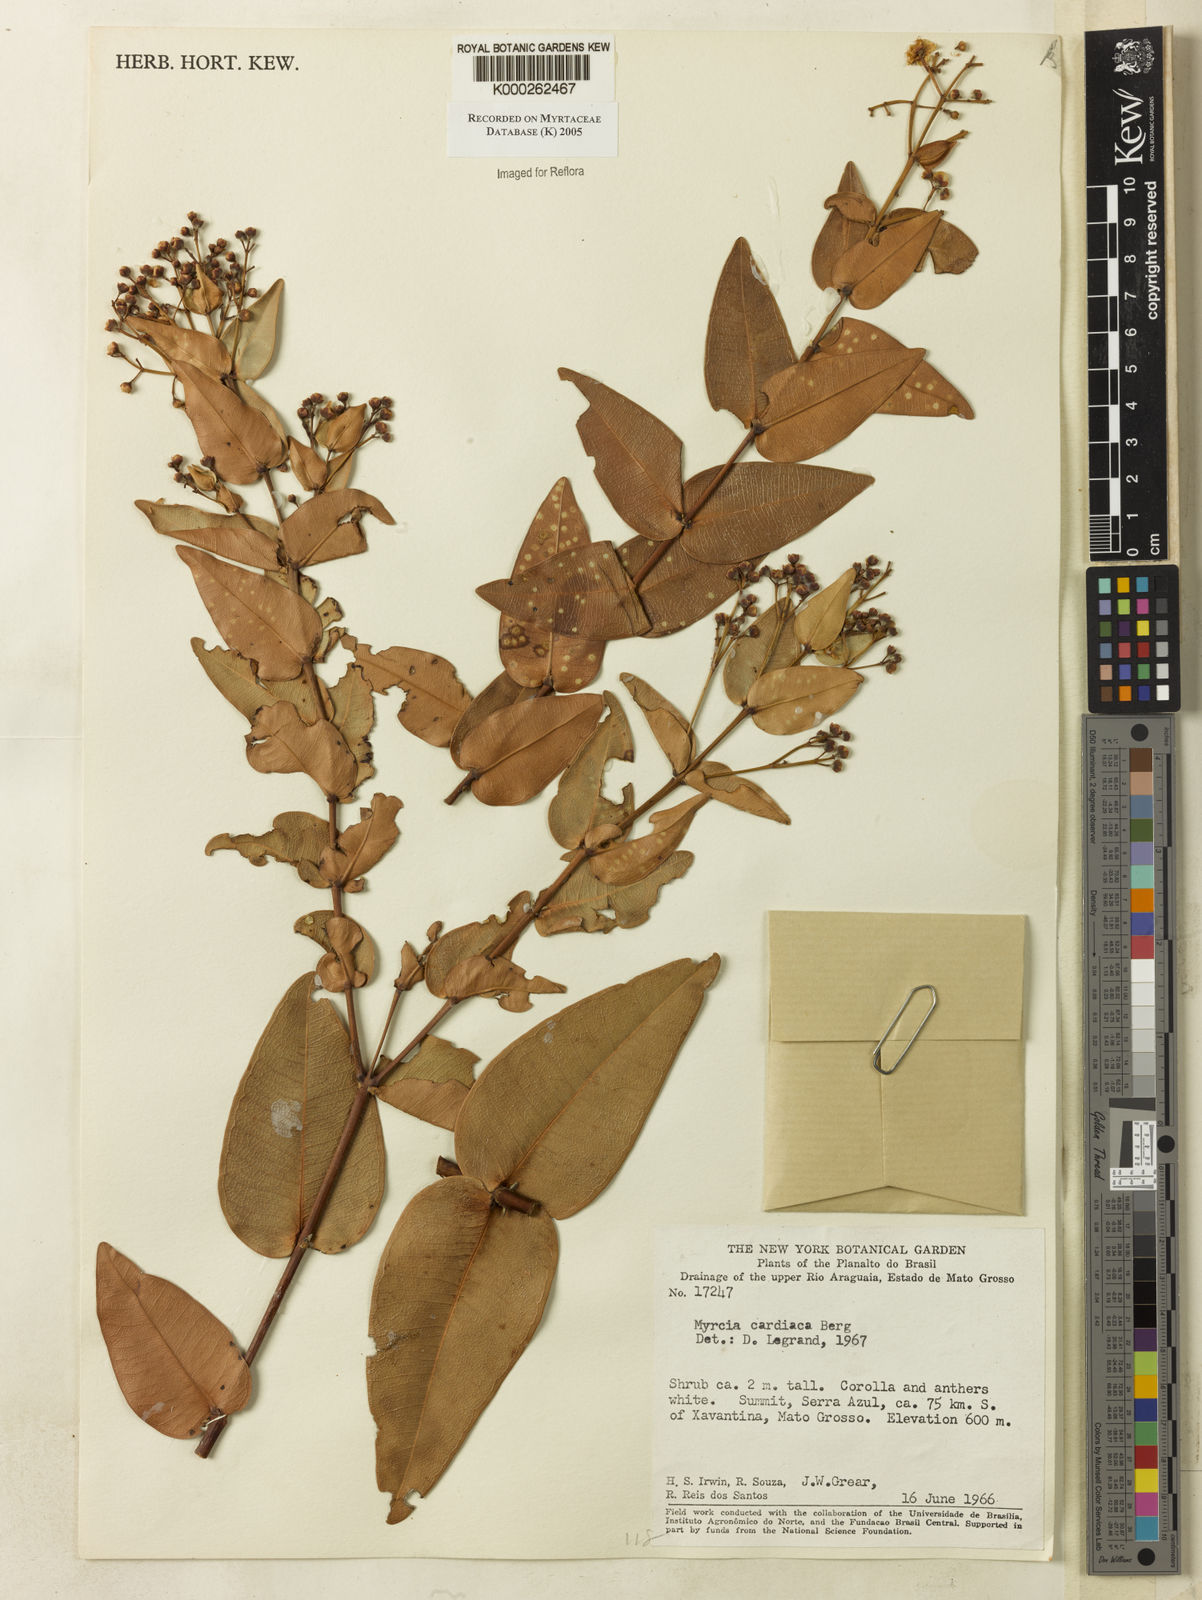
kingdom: Plantae
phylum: Tracheophyta
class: Magnoliopsida
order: Myrtales
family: Myrtaceae
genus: Myrcia
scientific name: Myrcia cardiaca
